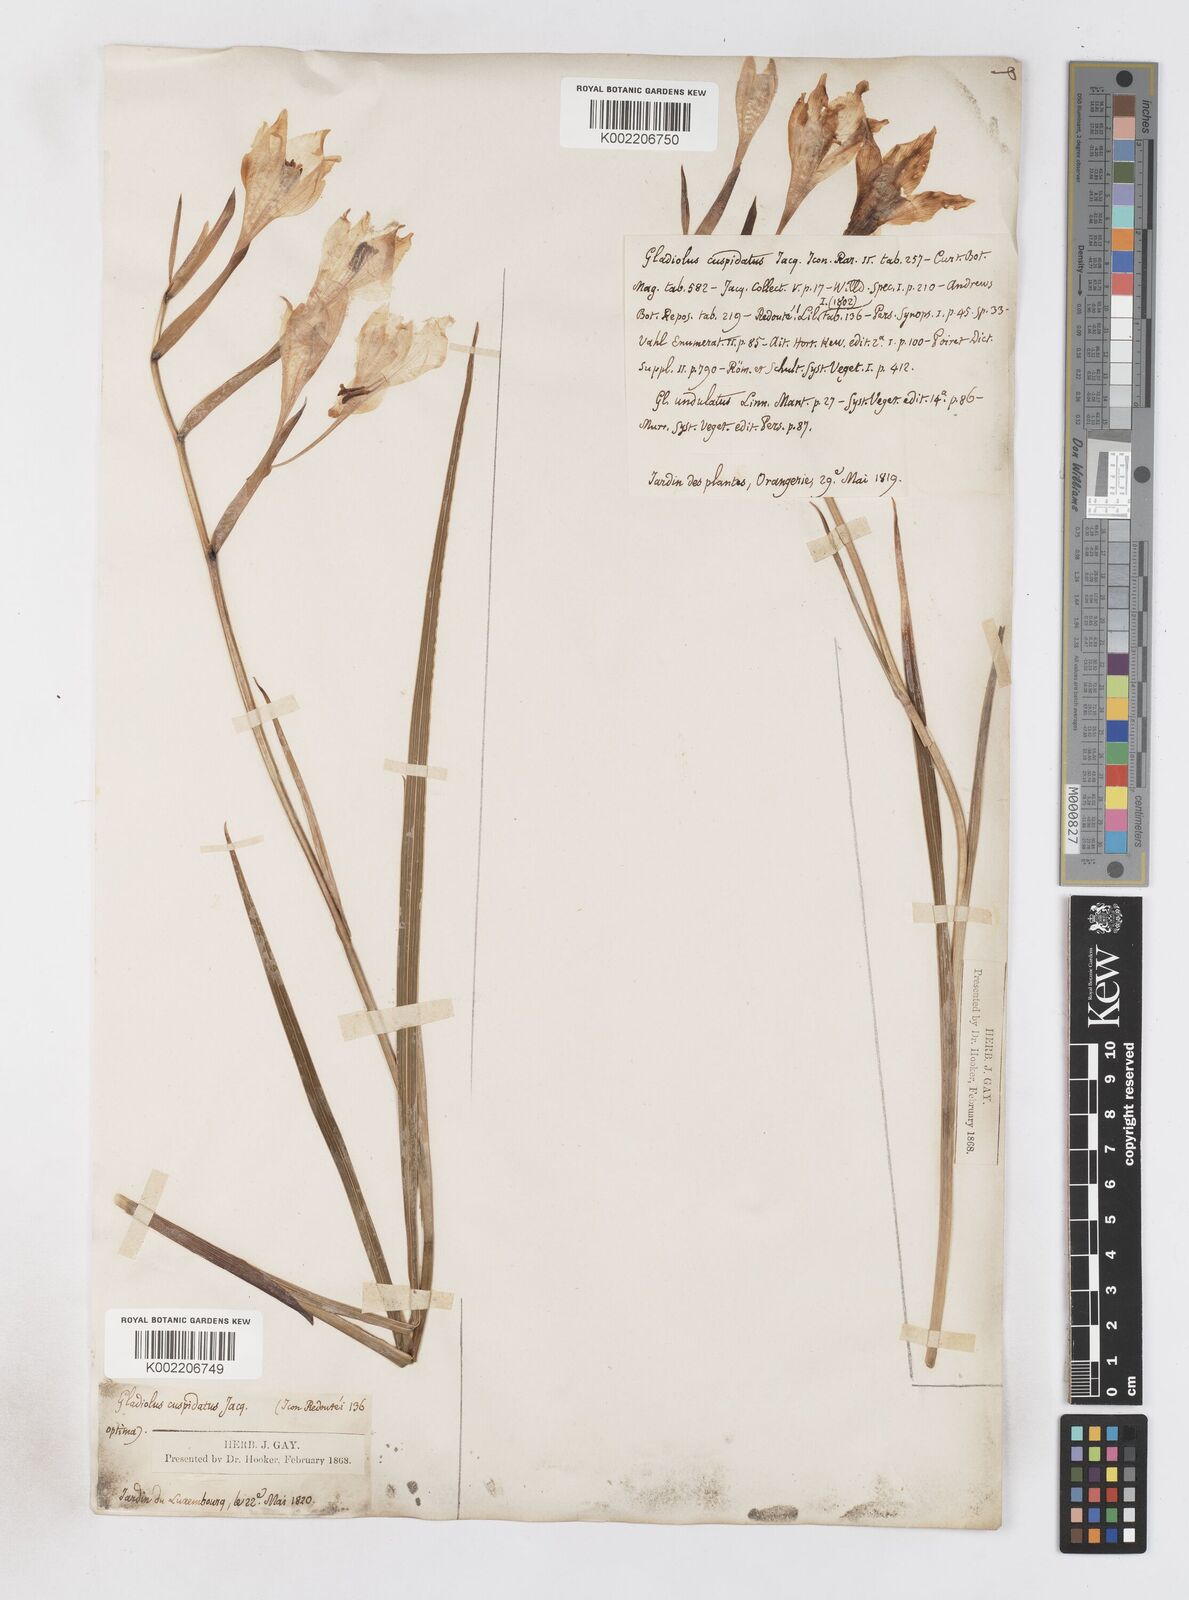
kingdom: Plantae
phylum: Tracheophyta
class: Liliopsida
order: Asparagales
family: Iridaceae
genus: Gladiolus
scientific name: Gladiolus undulatus
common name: Large painted-lady
